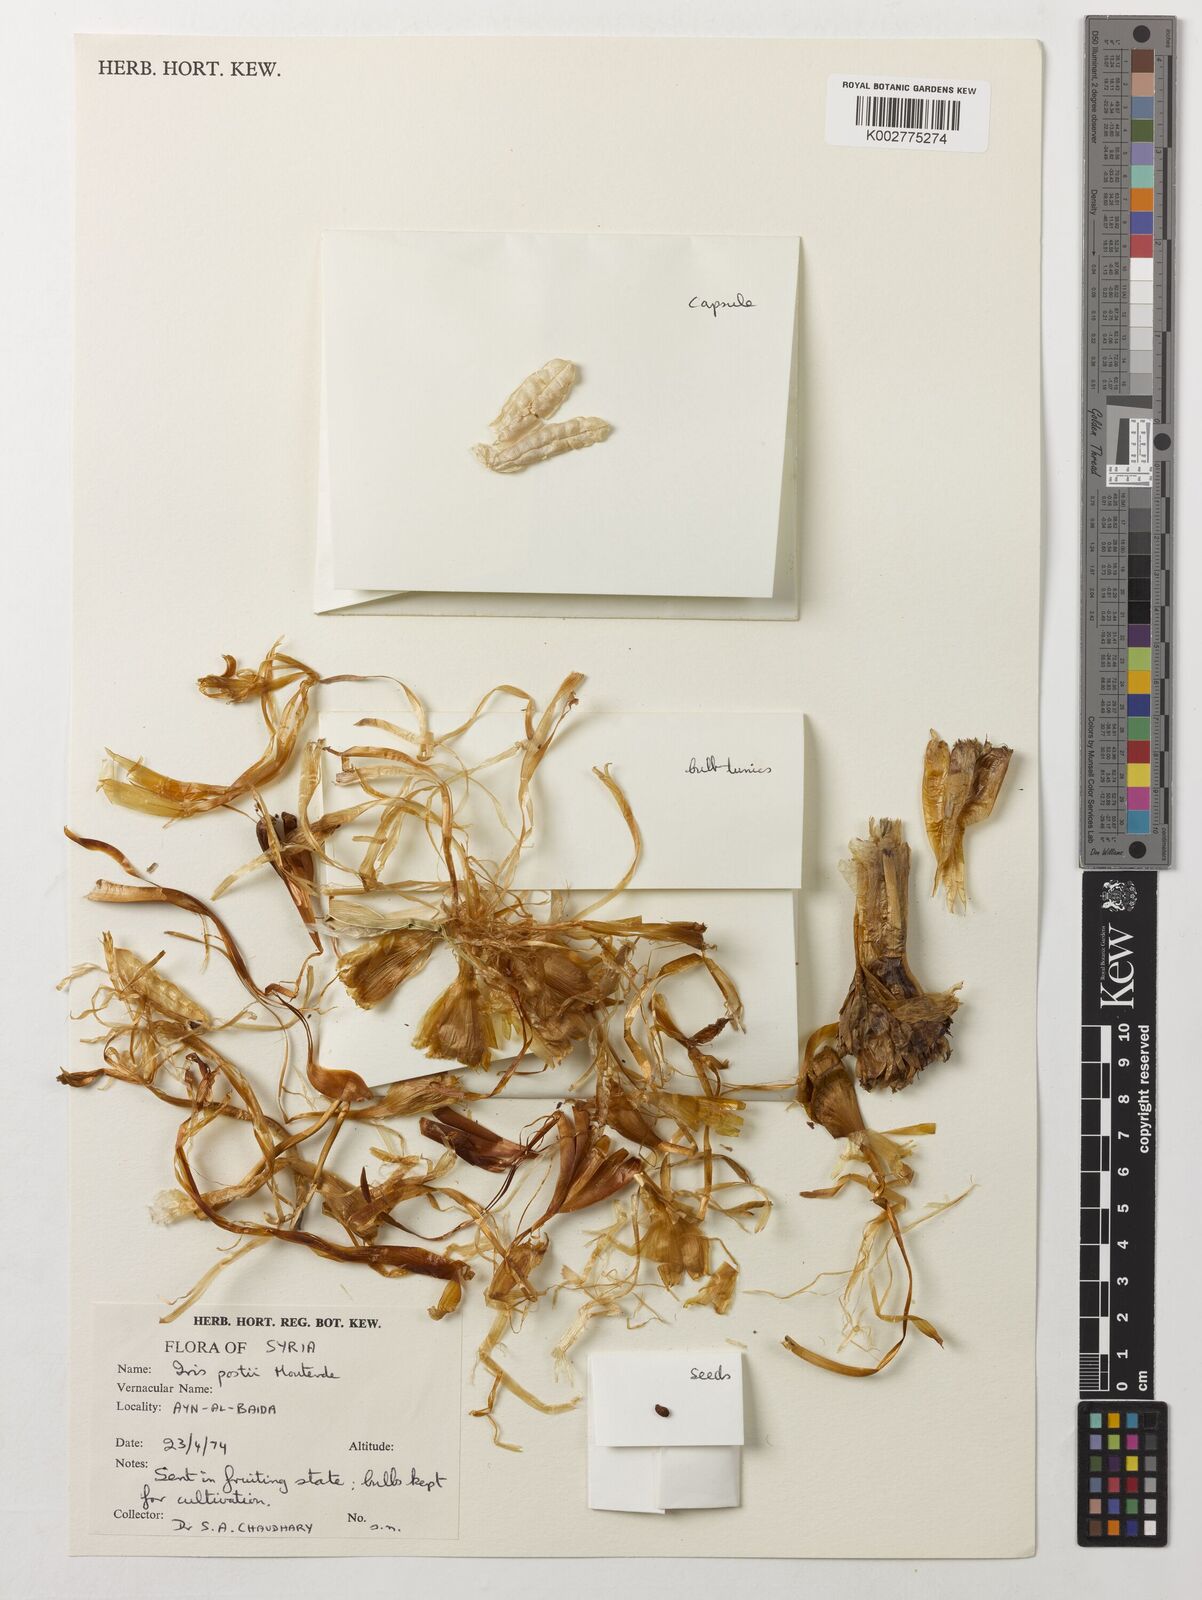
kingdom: Plantae
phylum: Tracheophyta
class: Liliopsida
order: Asparagales
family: Iridaceae
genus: Iris
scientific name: Iris postii
